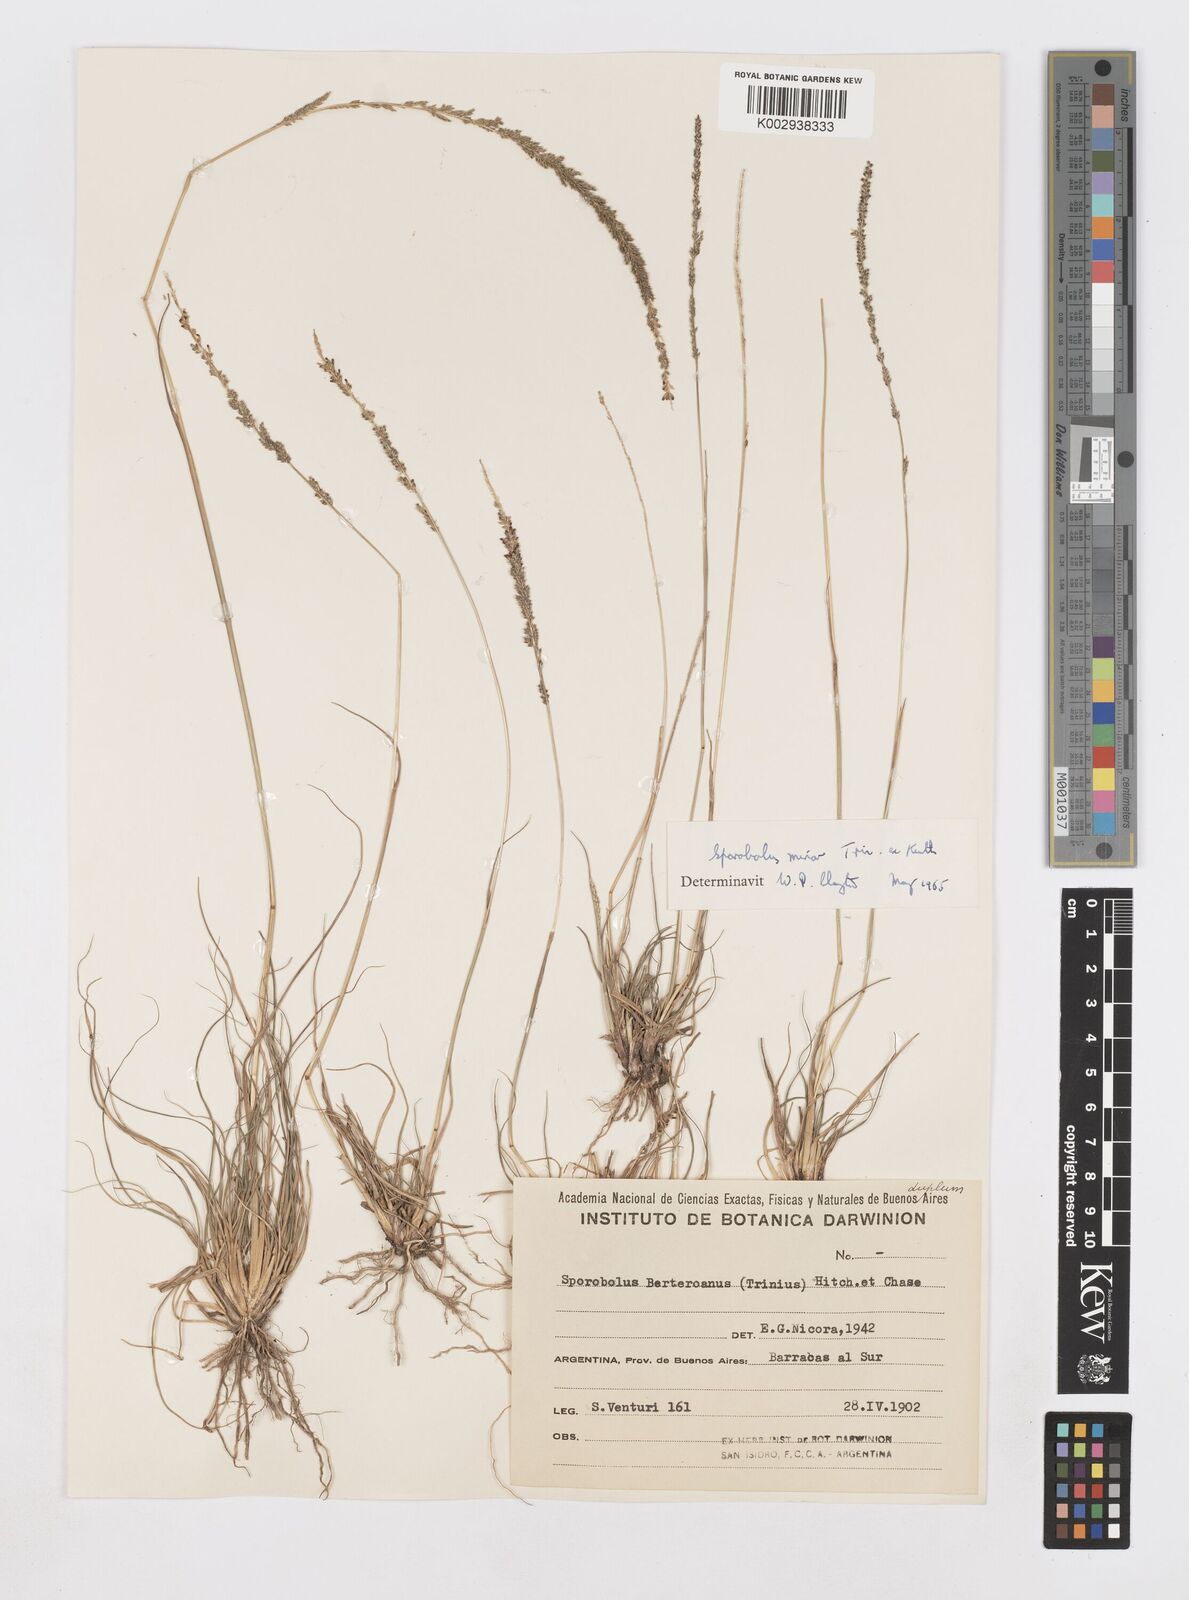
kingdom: Plantae
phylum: Tracheophyta
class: Liliopsida
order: Poales
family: Poaceae
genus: Sporobolus
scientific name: Sporobolus minor
